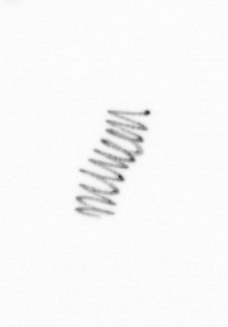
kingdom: Chromista
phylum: Ochrophyta
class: Bacillariophyceae
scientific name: Bacillariophyceae
